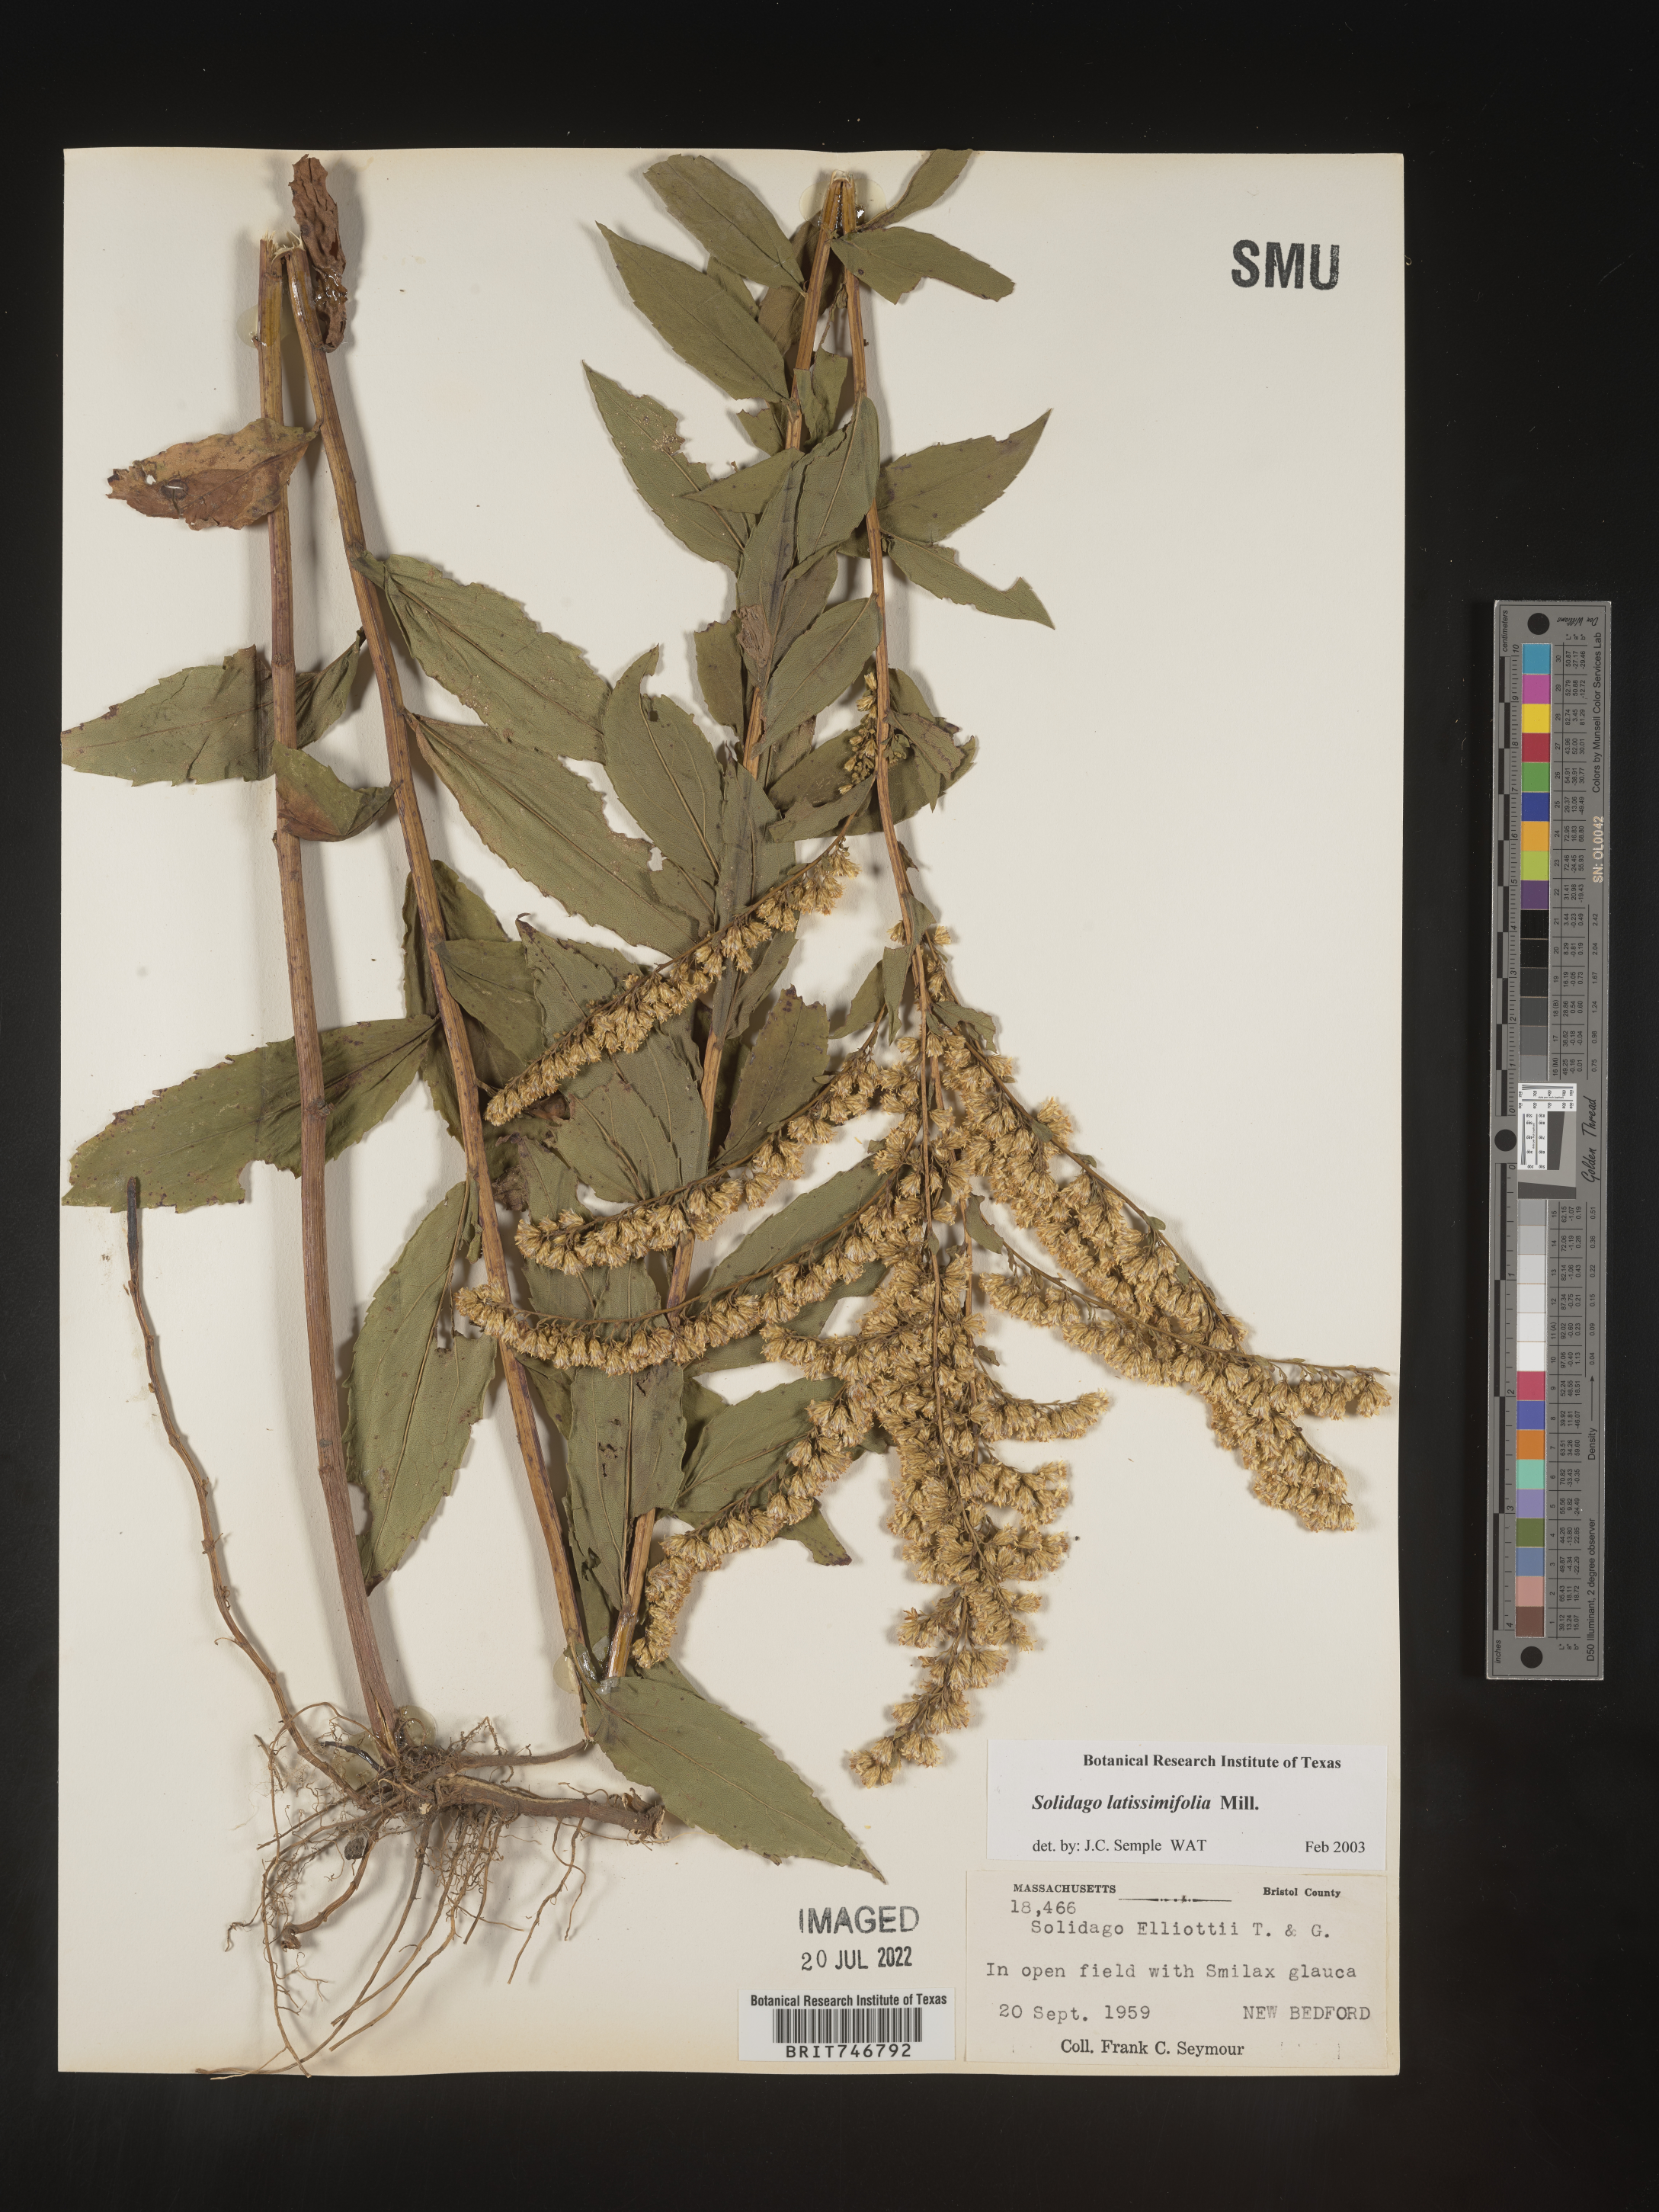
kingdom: Plantae
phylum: Tracheophyta
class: Magnoliopsida
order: Asterales
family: Asteraceae
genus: Solidago
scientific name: Solidago latissimifolia
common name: Elliott's goldenrod
